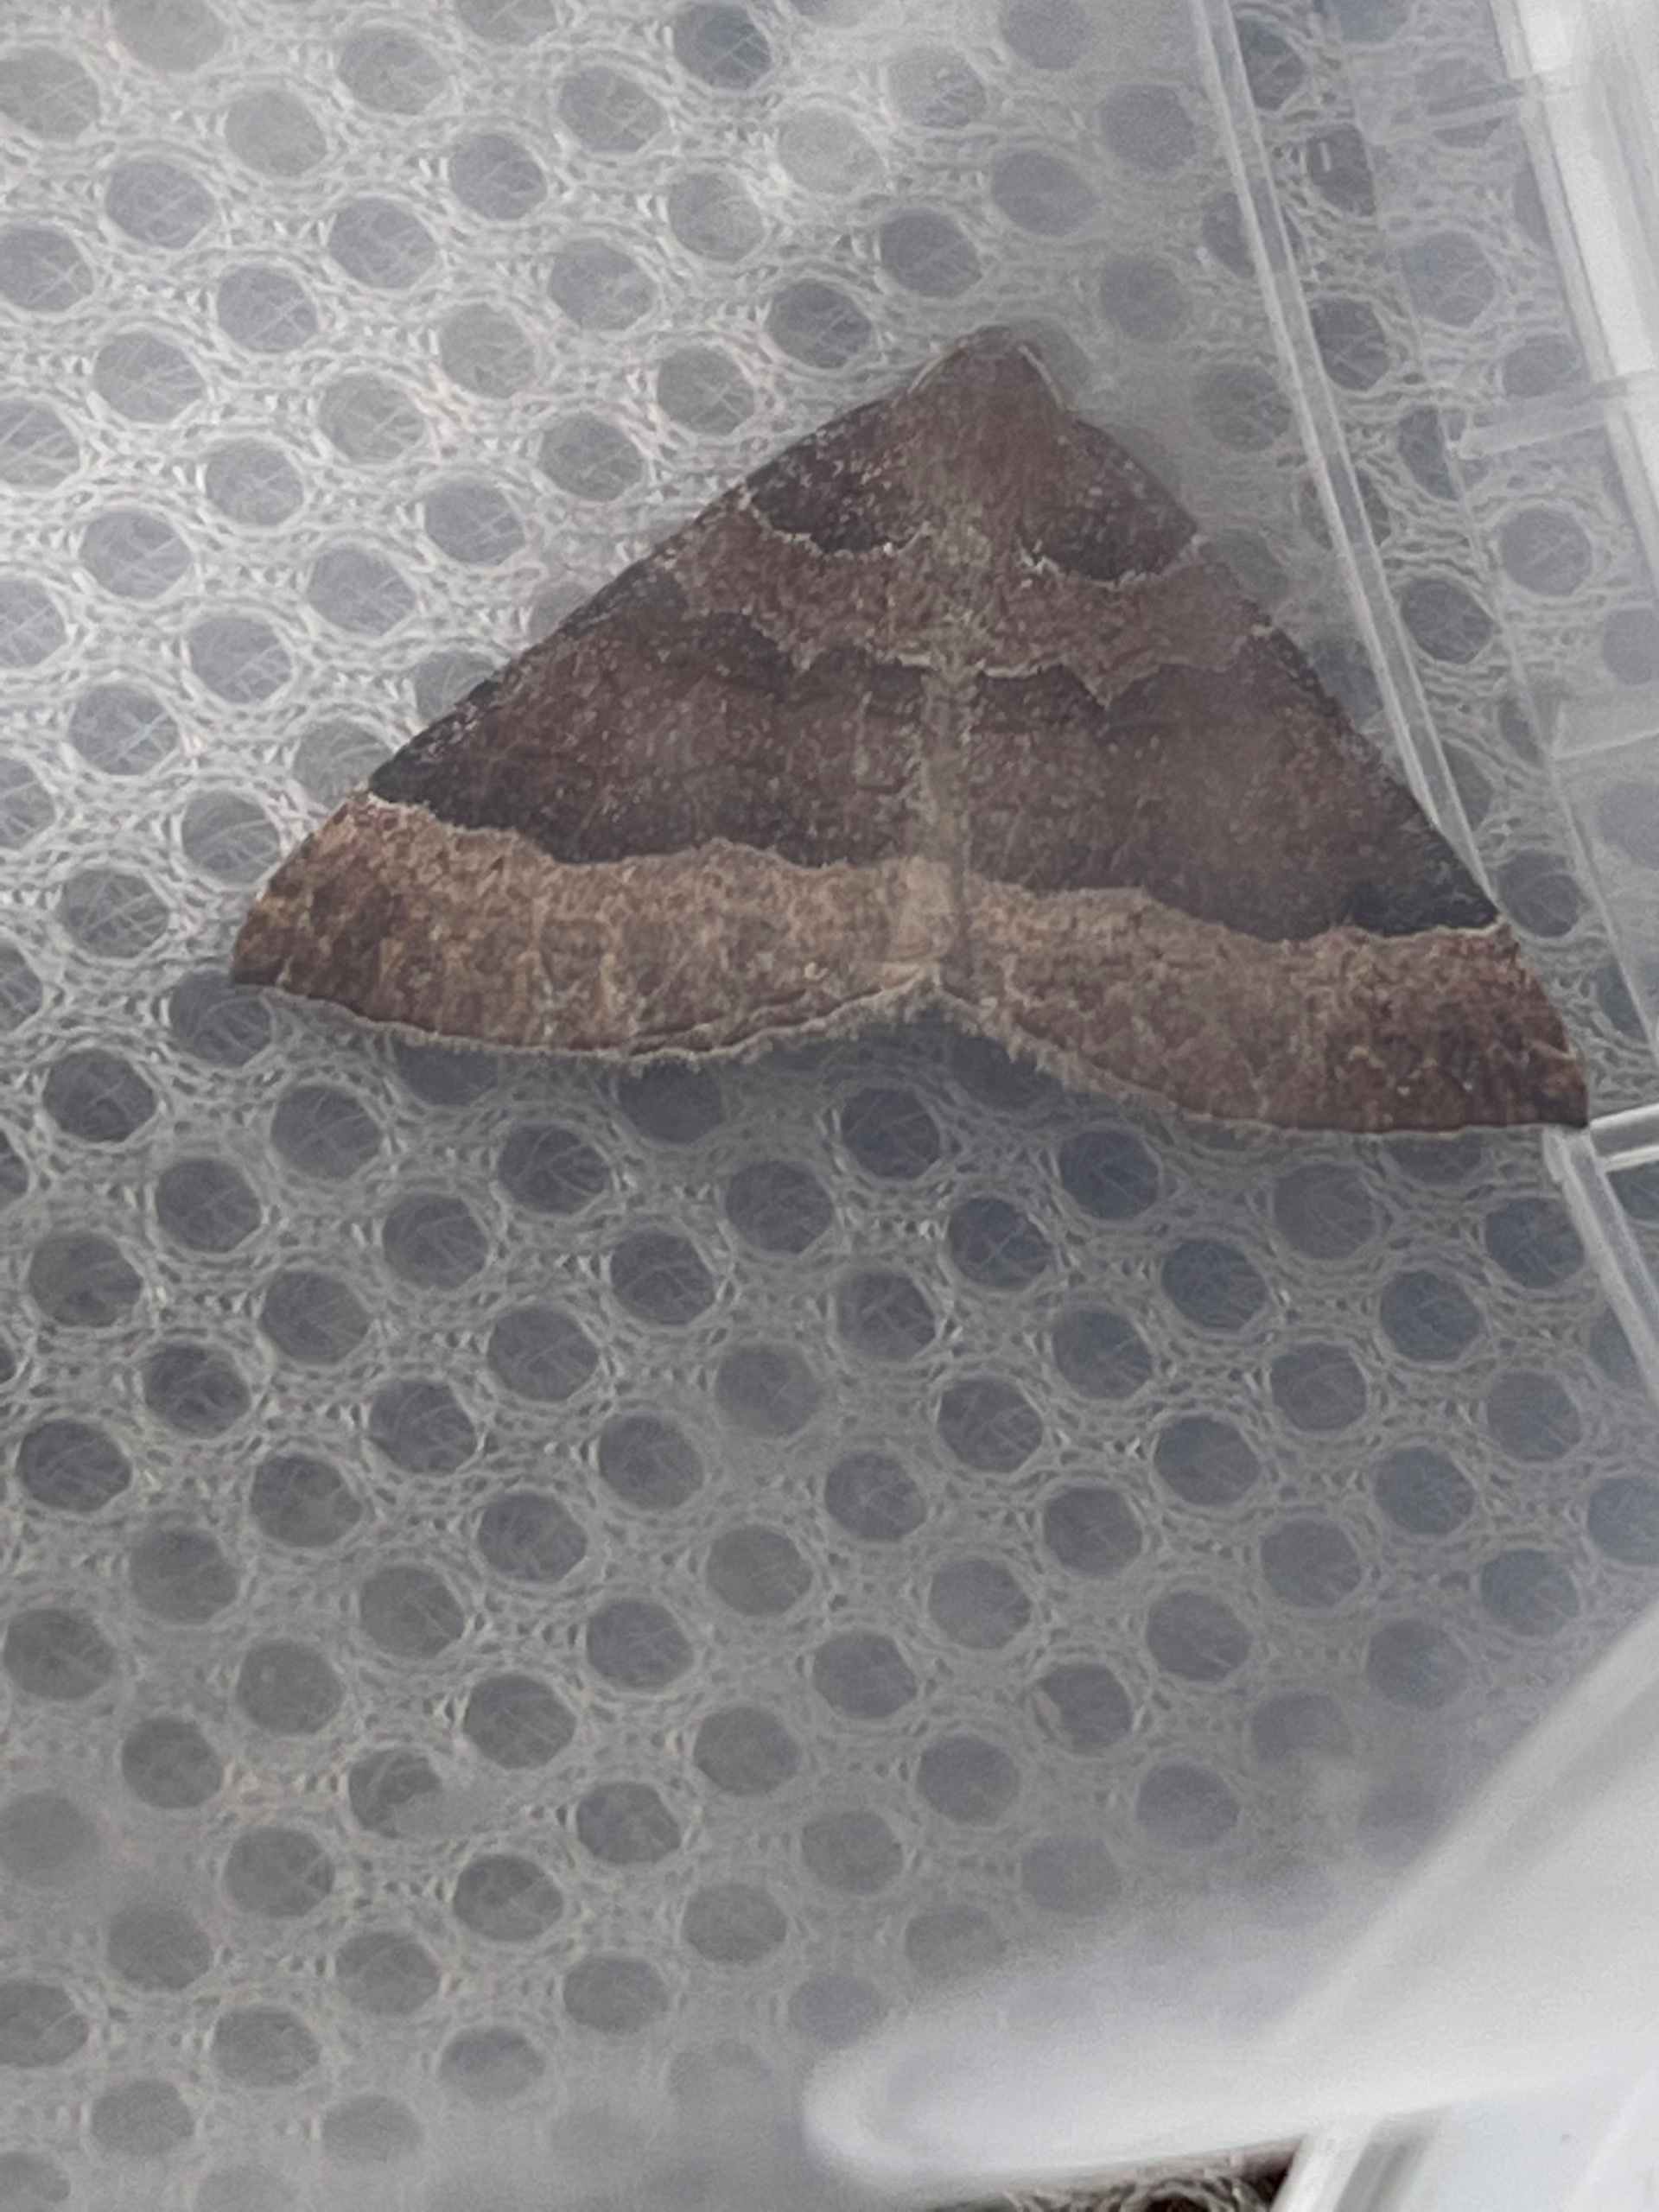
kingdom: Animalia
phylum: Arthropoda
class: Insecta
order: Lepidoptera
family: Geometridae
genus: Larentia
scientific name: Larentia clavaria
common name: Katostmåler
